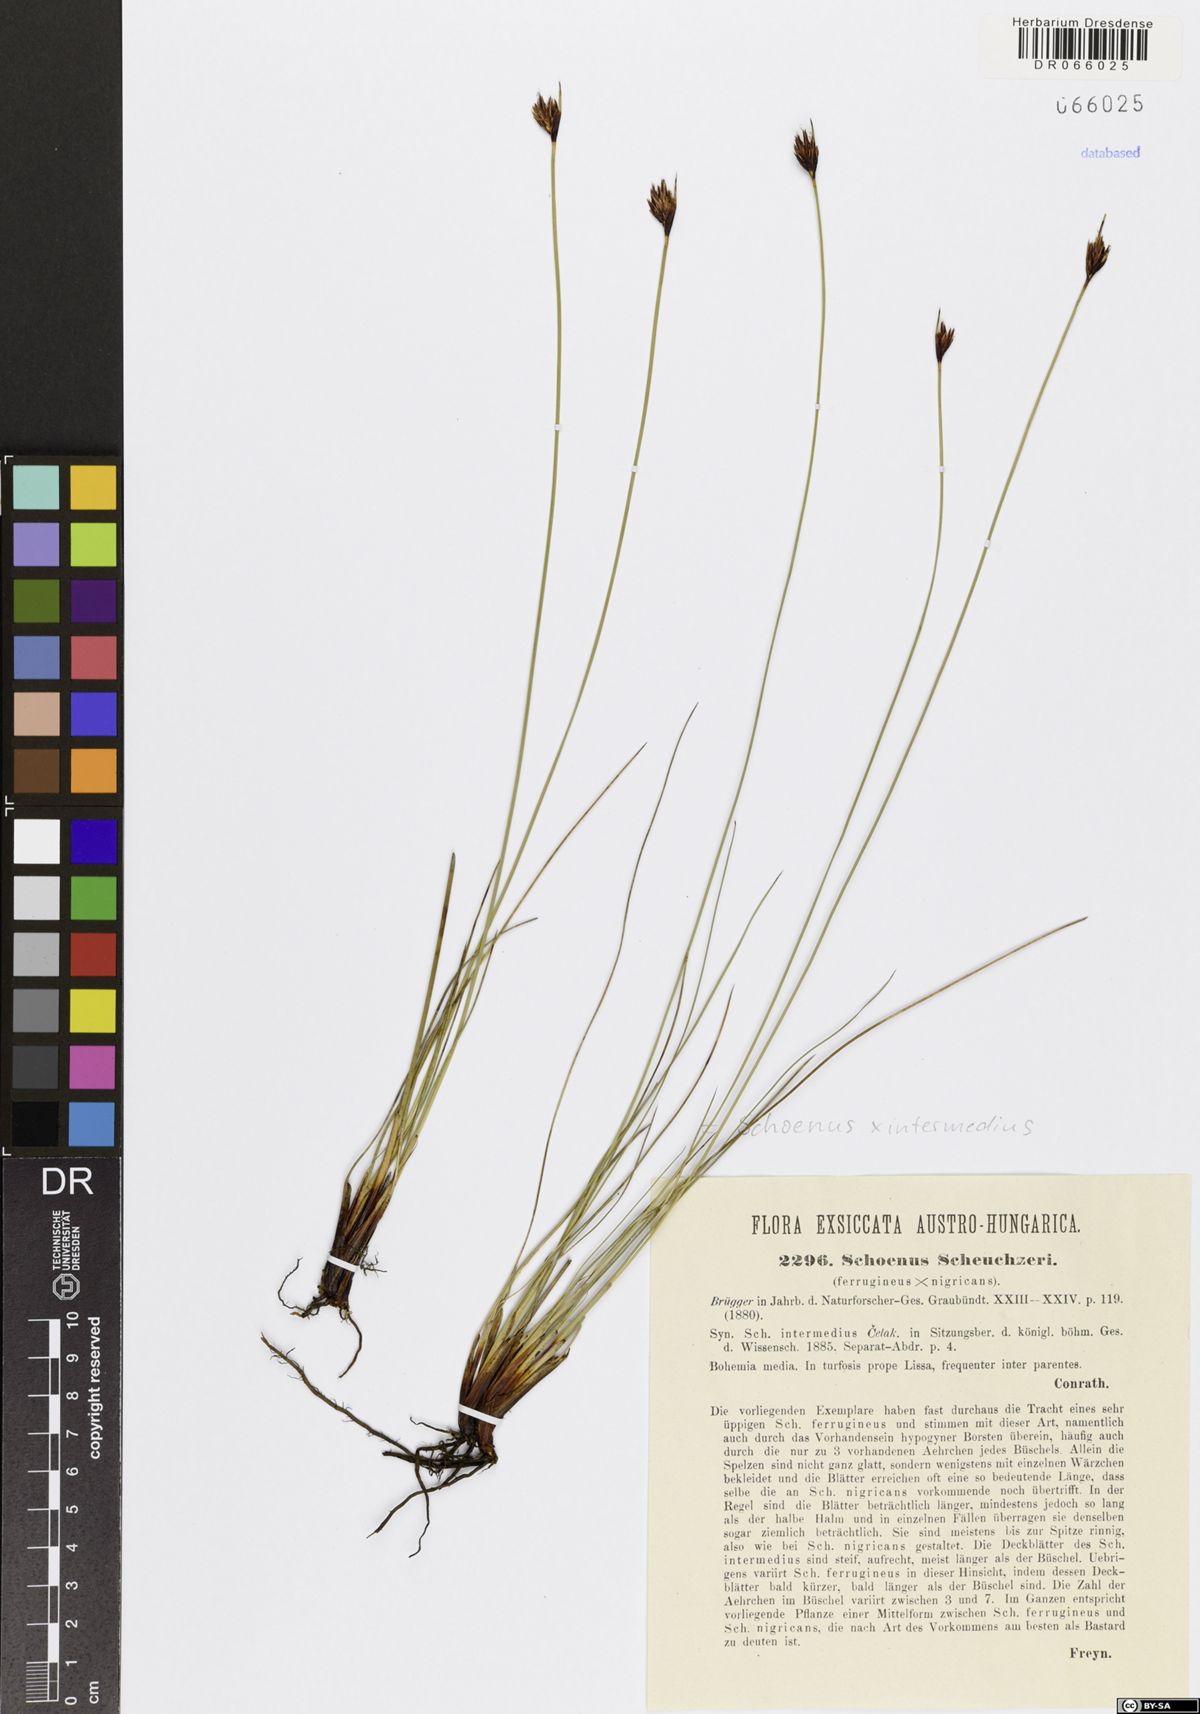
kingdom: Plantae
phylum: Tracheophyta
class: Liliopsida
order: Poales
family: Cyperaceae
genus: Schoenus
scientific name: Schoenus scheuchzeri
